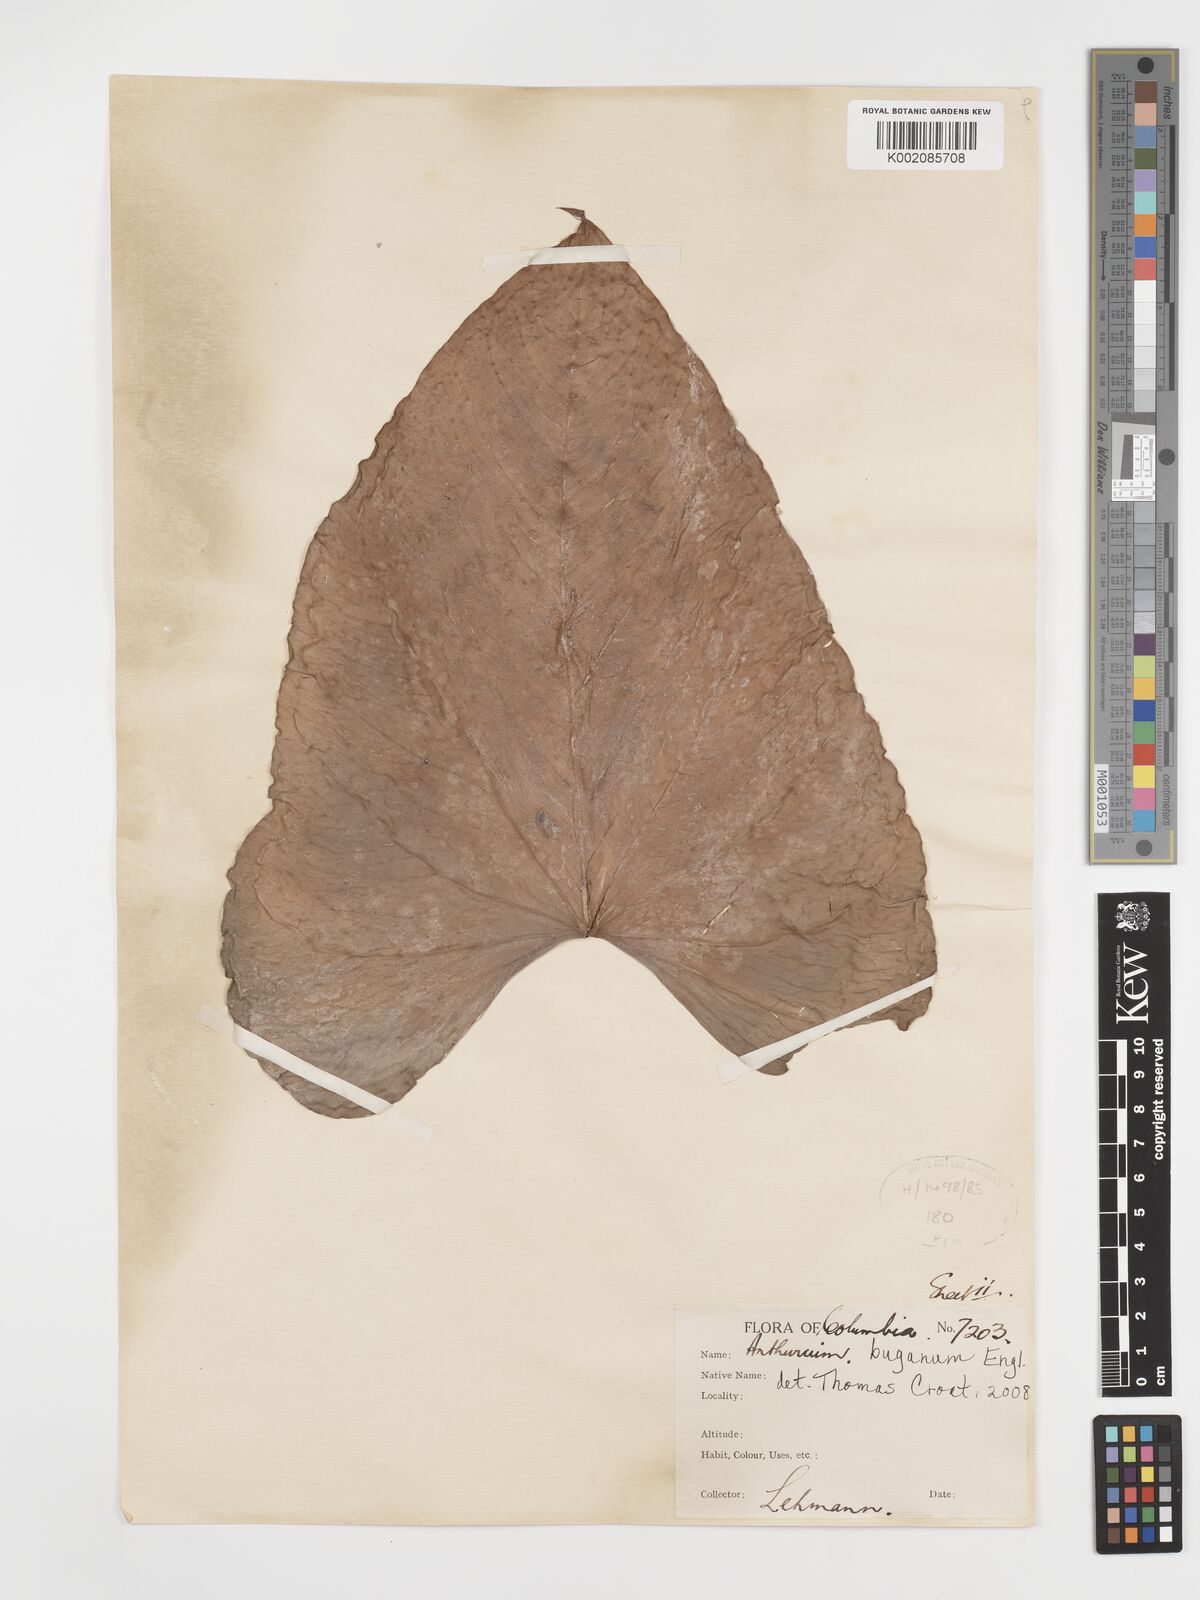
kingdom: Plantae
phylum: Tracheophyta
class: Liliopsida
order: Alismatales
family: Araceae
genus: Anthurium
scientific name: Anthurium buganum
